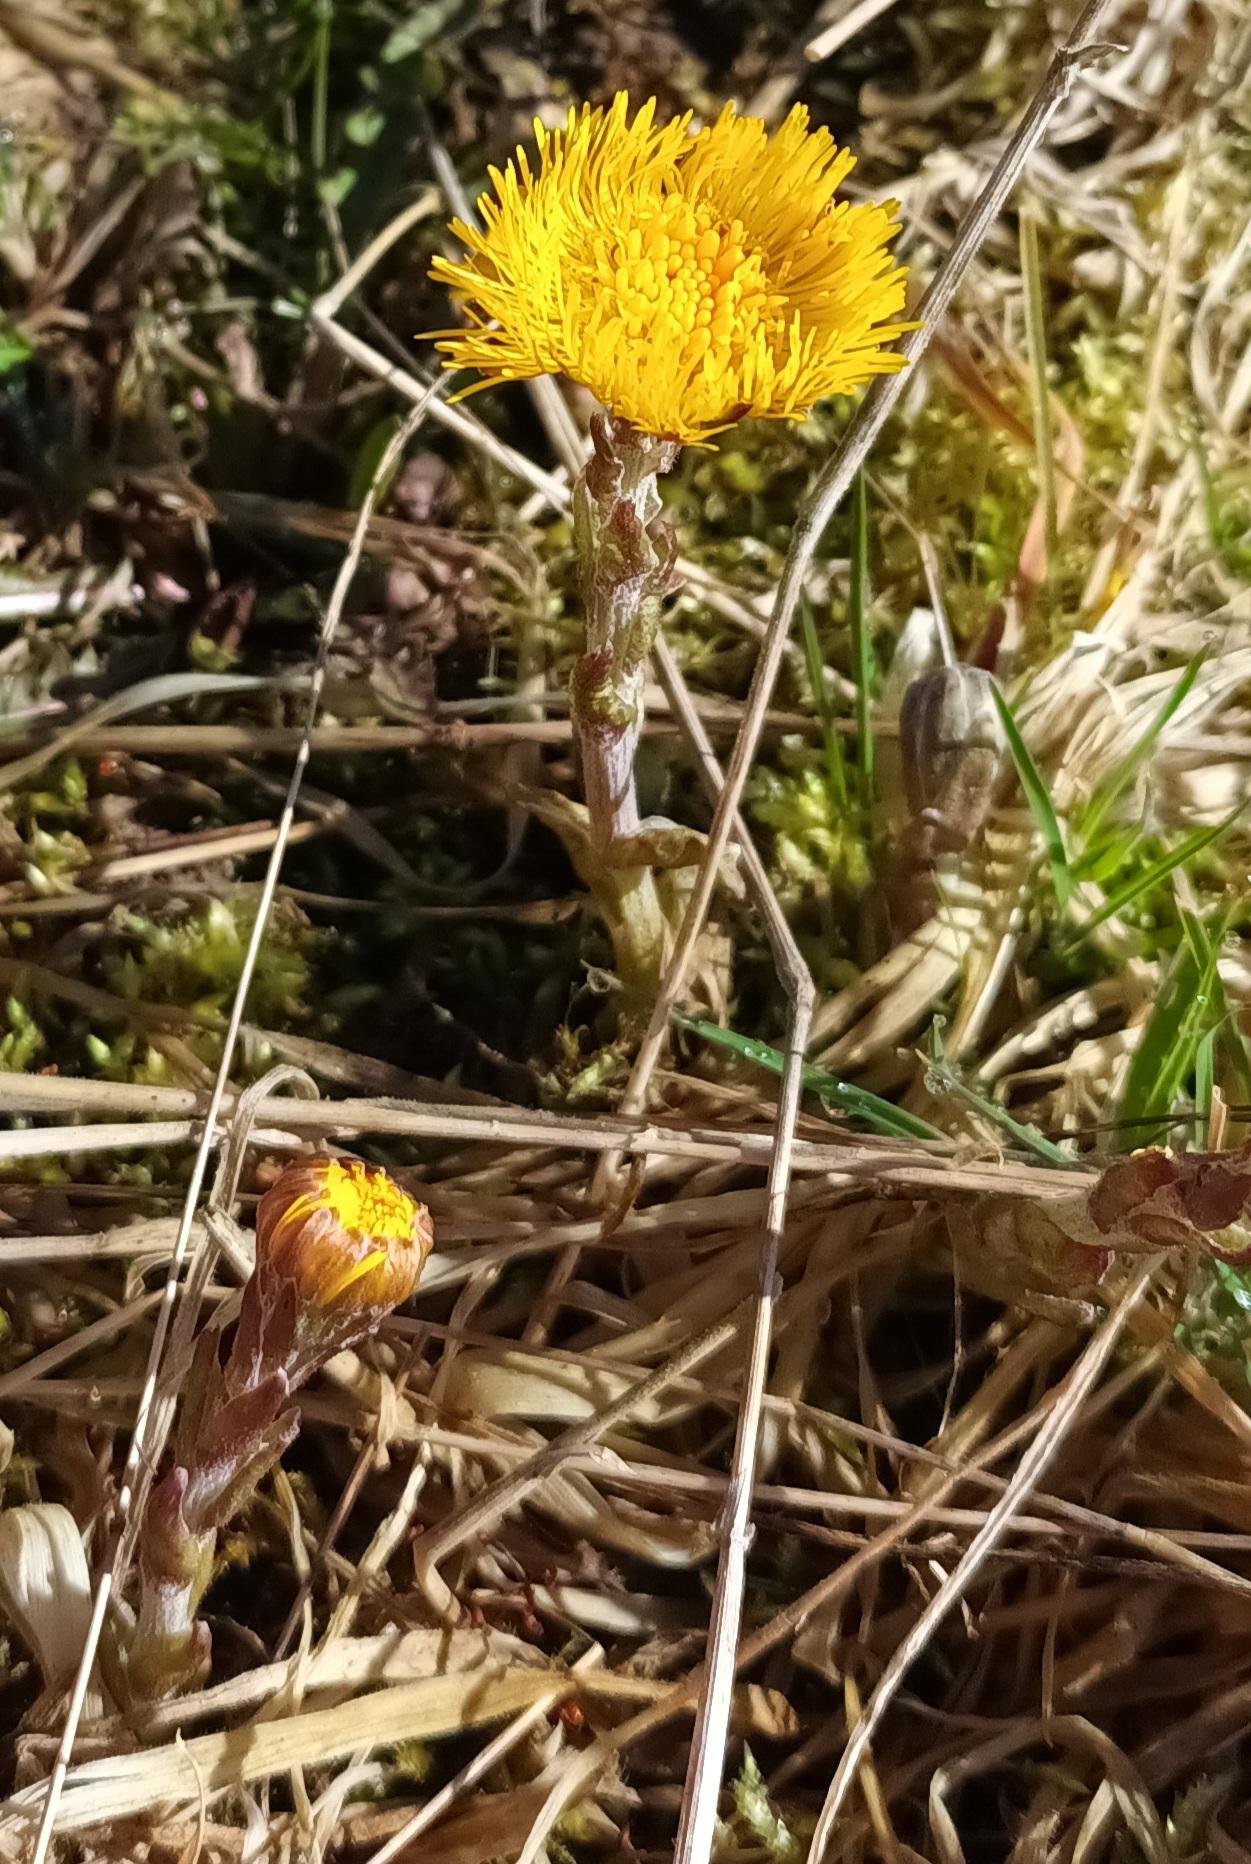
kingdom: Plantae
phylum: Tracheophyta
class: Magnoliopsida
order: Asterales
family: Asteraceae
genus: Tussilago
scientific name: Tussilago farfara
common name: Følfod
